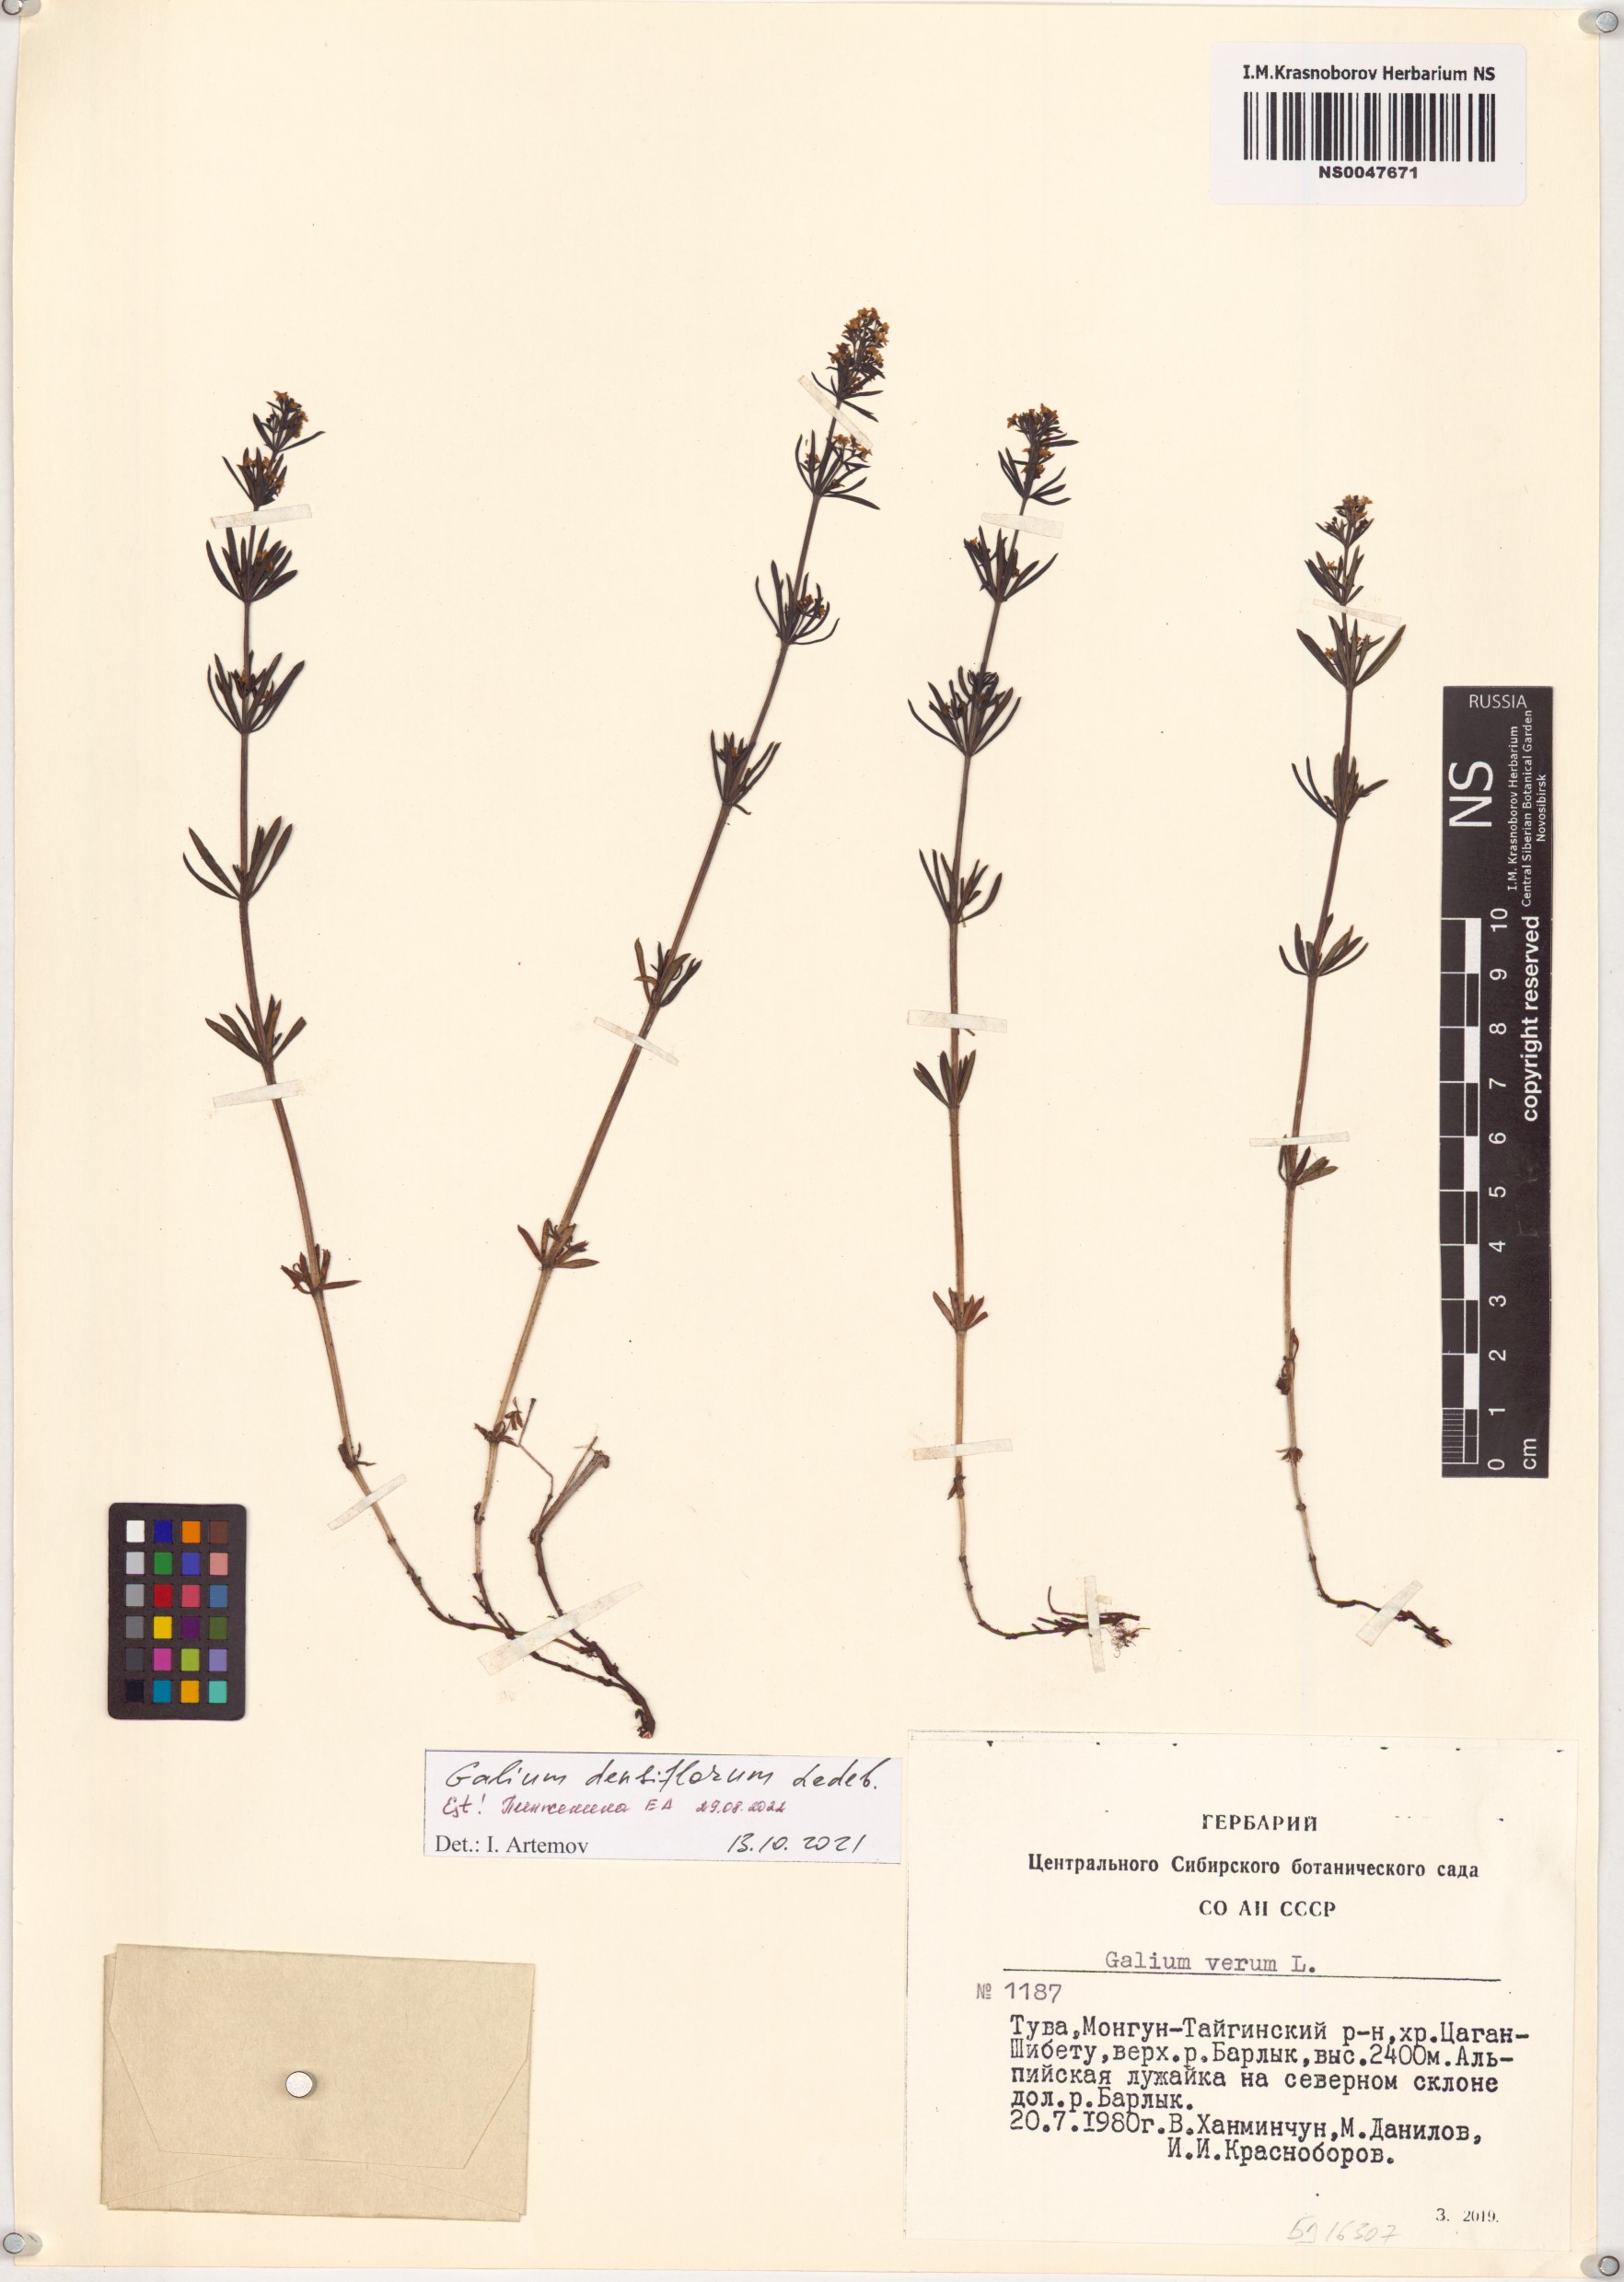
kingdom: Plantae
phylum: Tracheophyta
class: Magnoliopsida
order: Gentianales
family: Rubiaceae
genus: Galium
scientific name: Galium densiflorum
